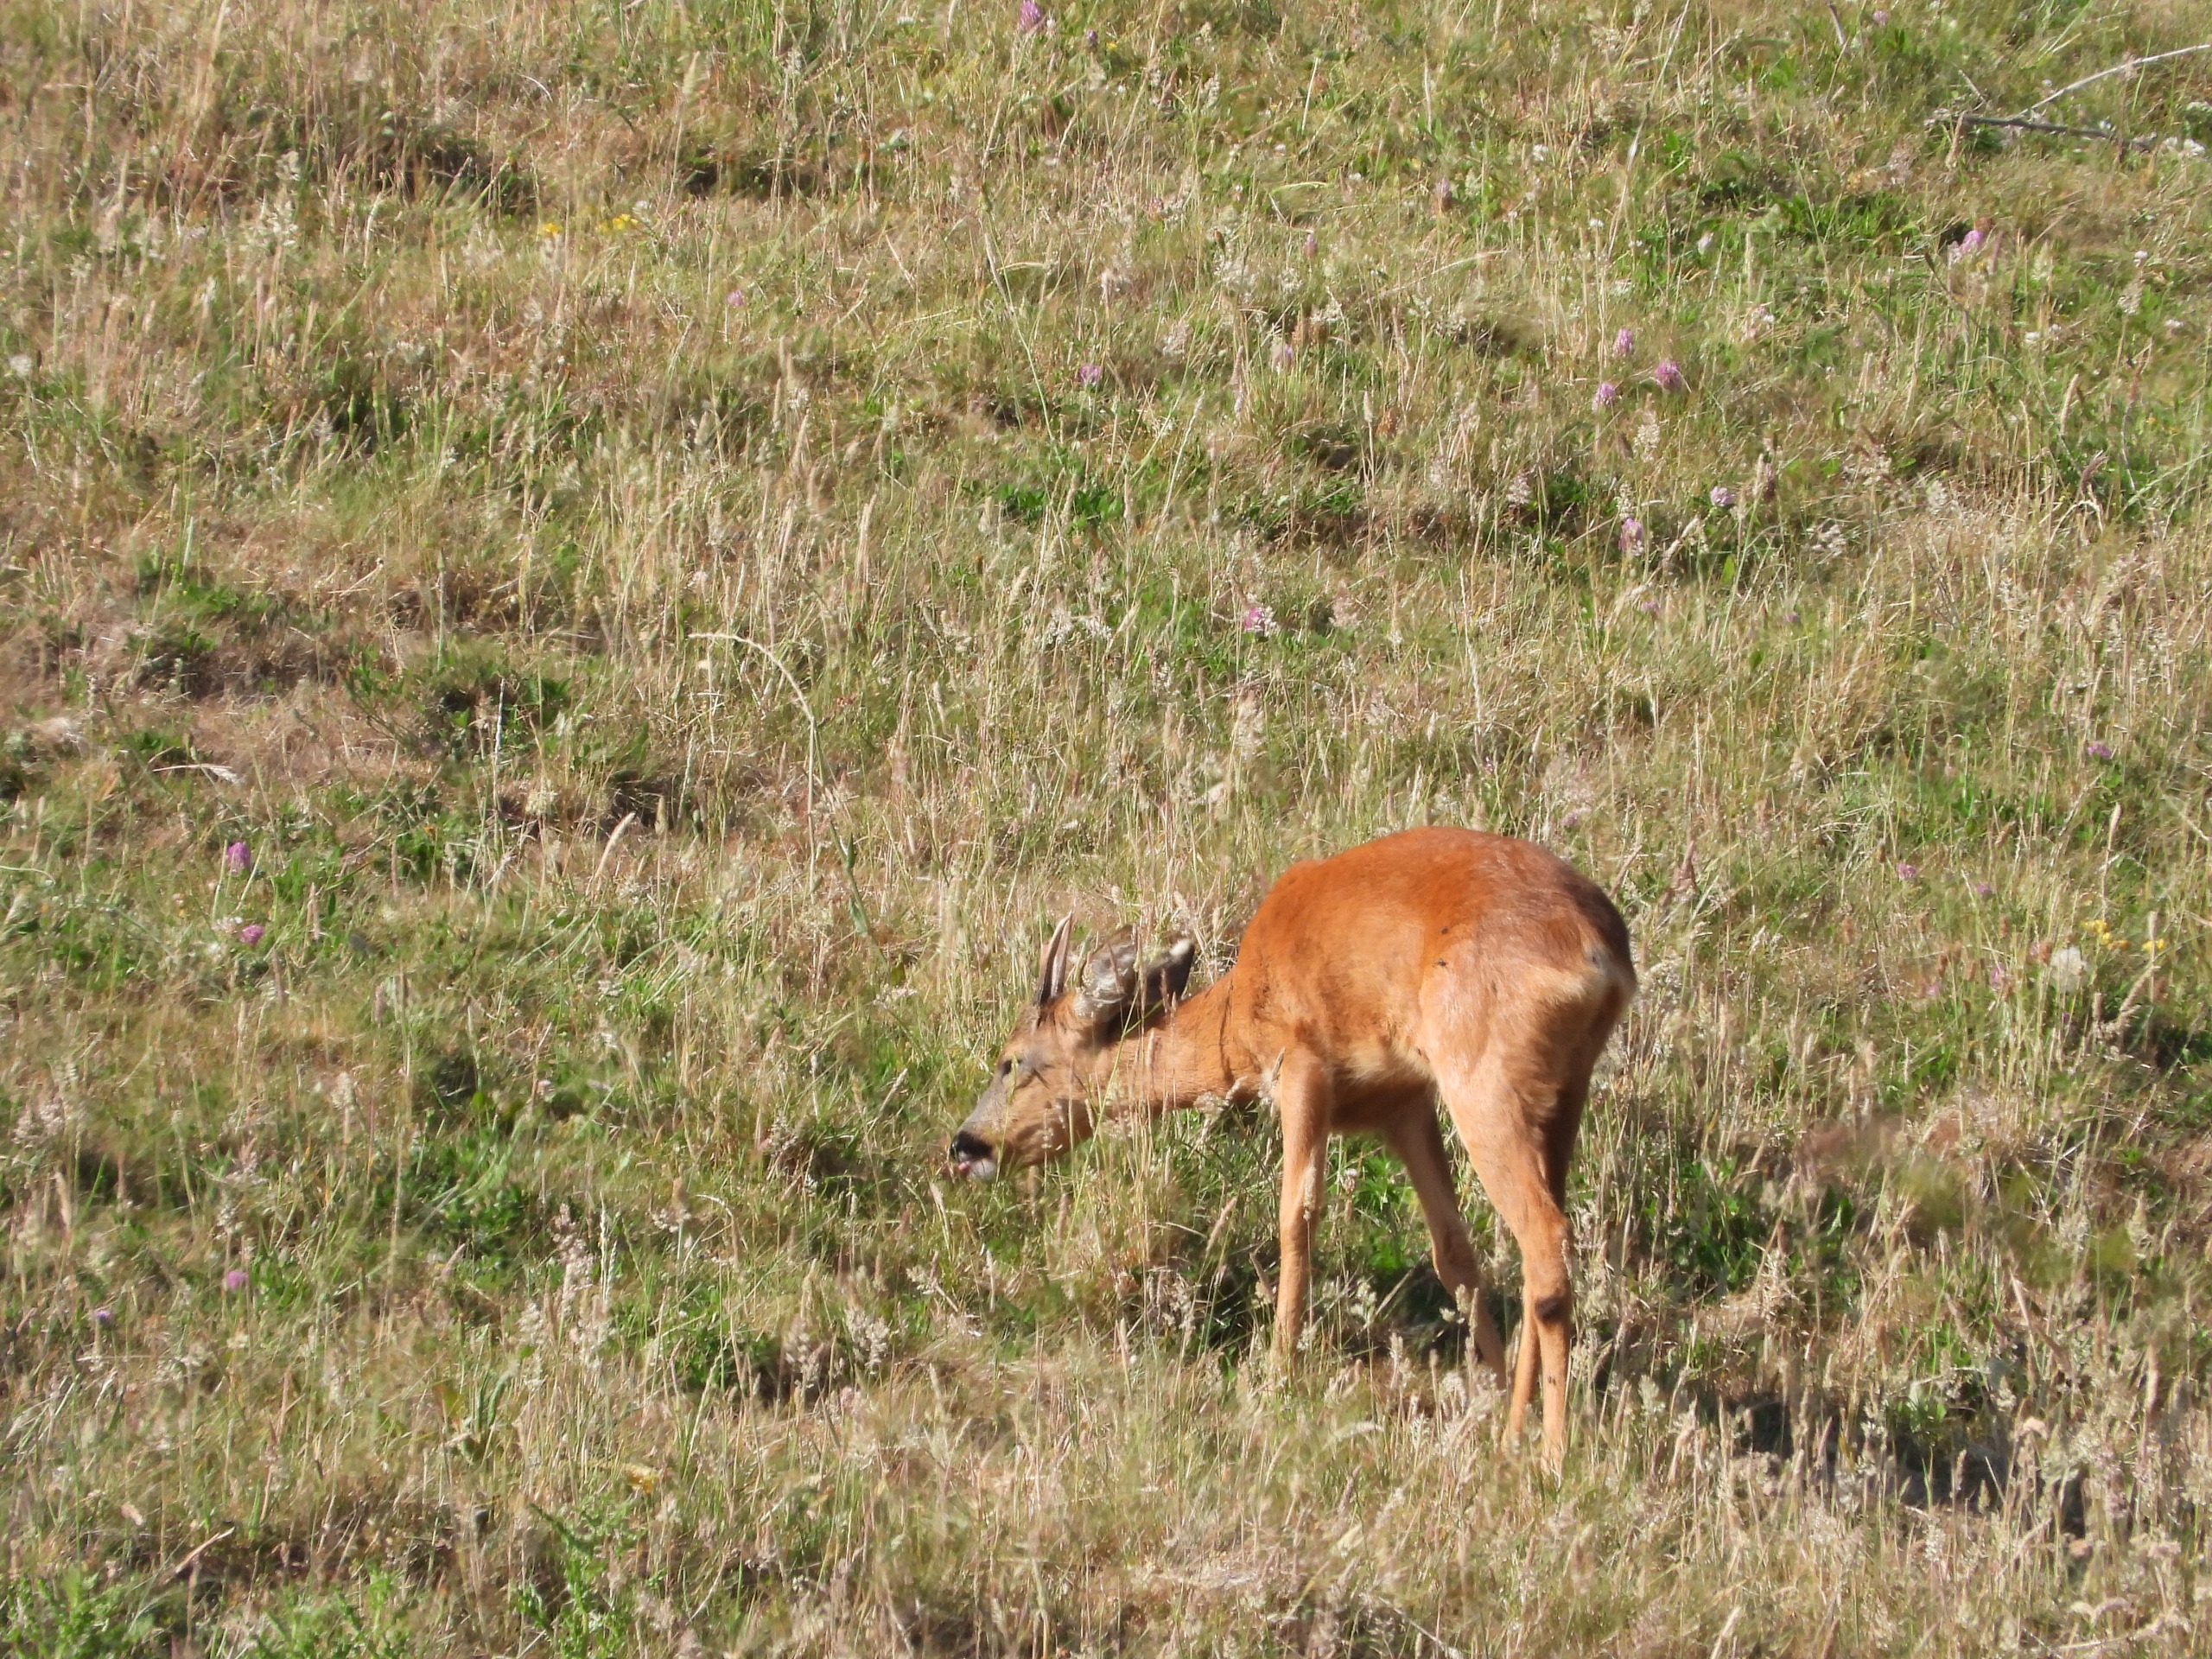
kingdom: Animalia
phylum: Chordata
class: Mammalia
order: Artiodactyla
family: Cervidae
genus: Capreolus
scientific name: Capreolus capreolus
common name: Rådyr
